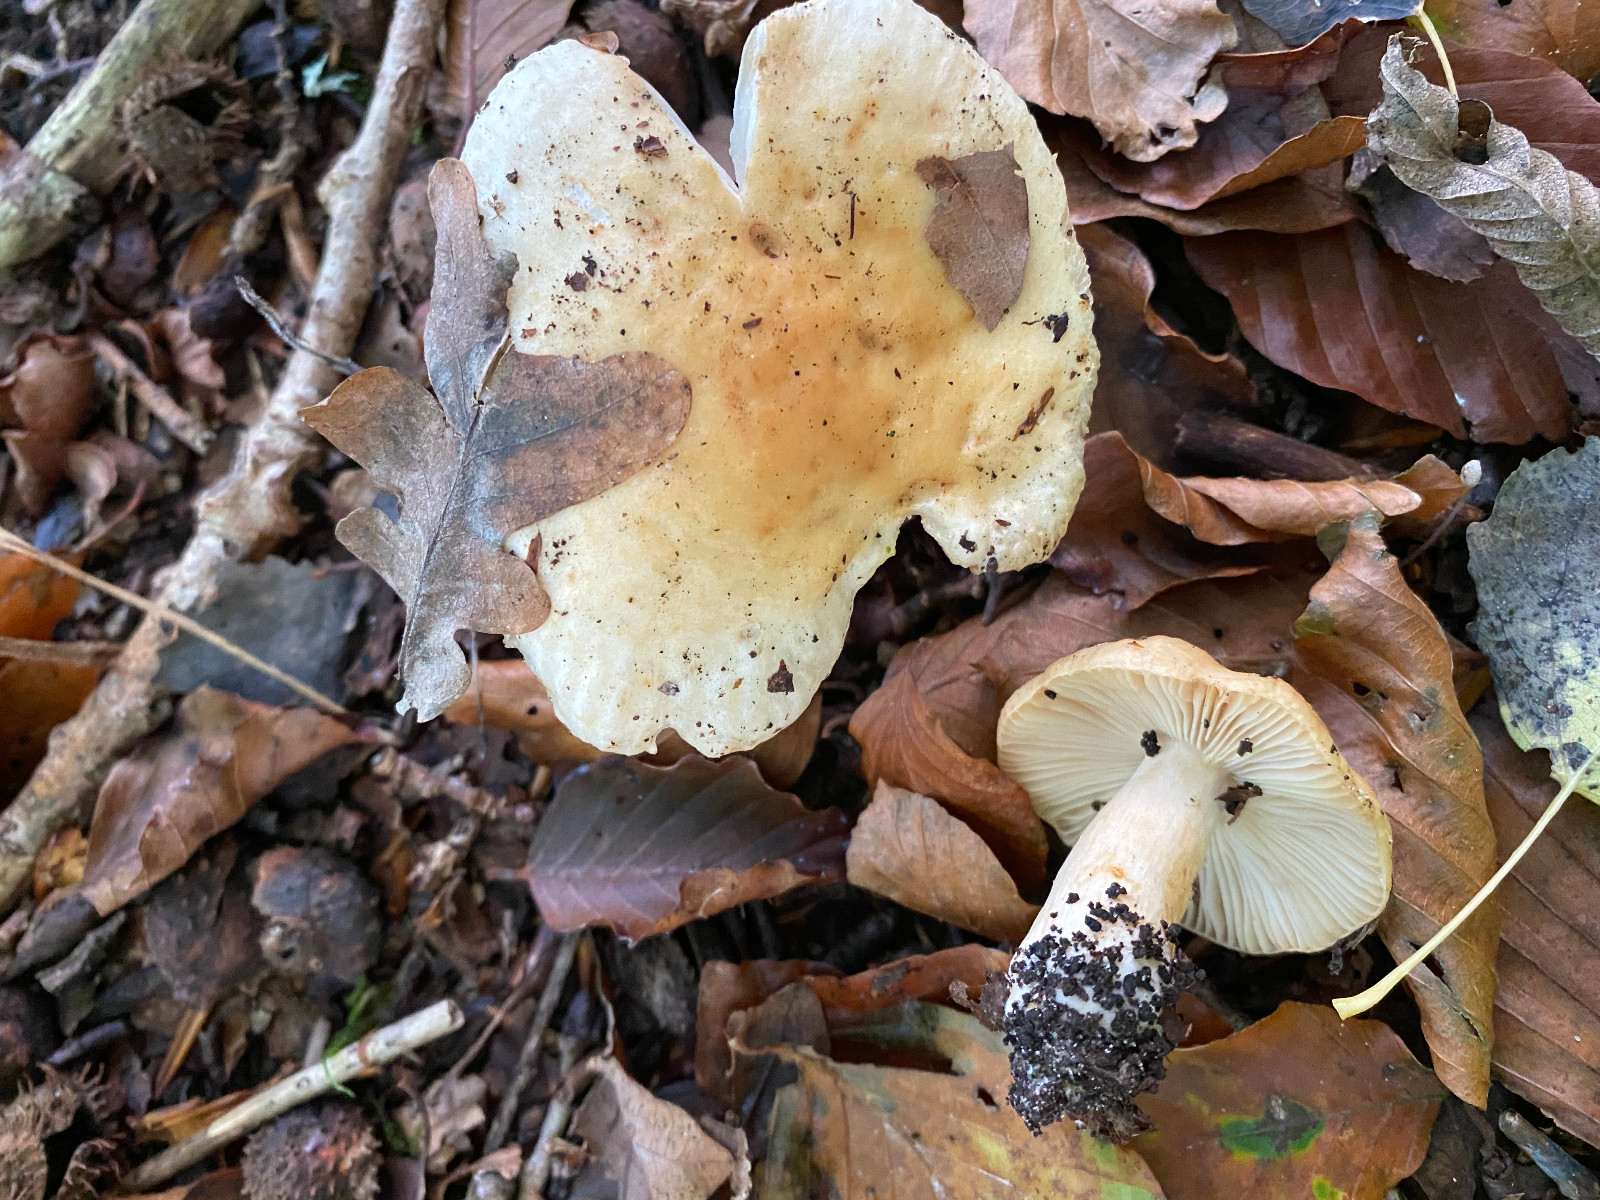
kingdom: Fungi
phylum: Basidiomycota
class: Agaricomycetes
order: Russulales
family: Russulaceae
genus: Russula
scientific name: Russula fellea
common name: galde-skørhat
